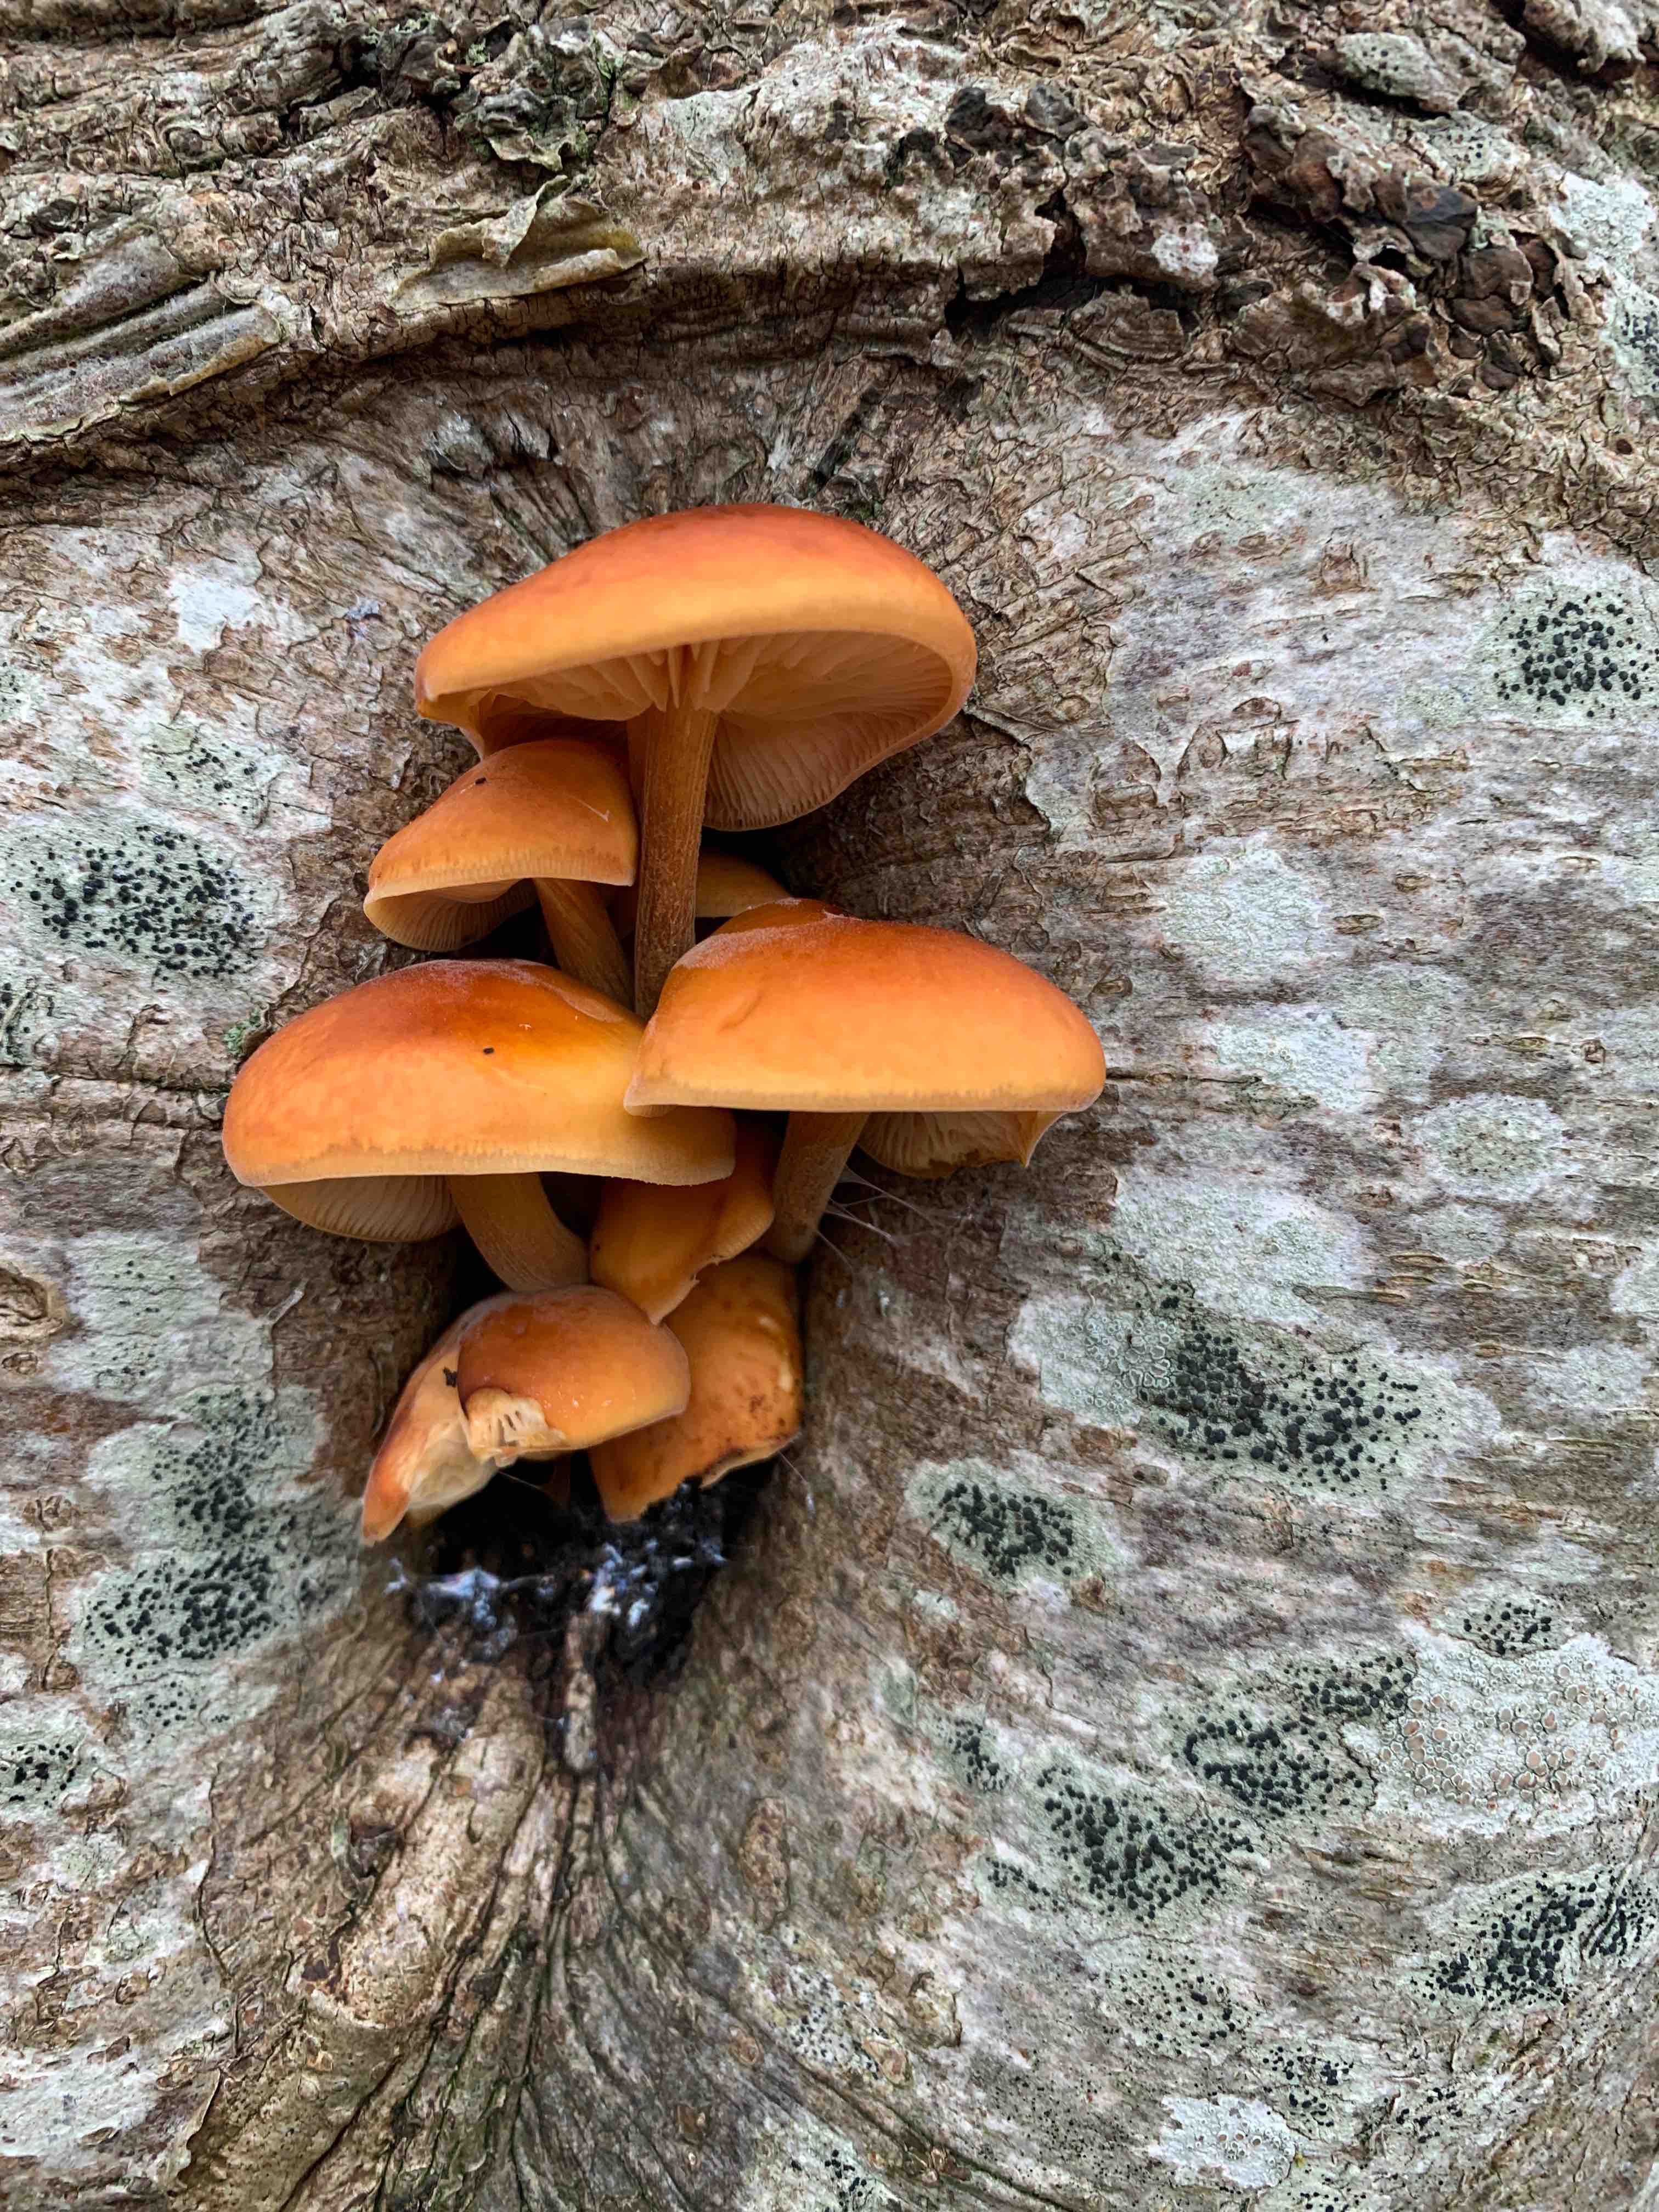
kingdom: Fungi
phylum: Basidiomycota
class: Agaricomycetes
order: Agaricales
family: Physalacriaceae
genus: Flammulina
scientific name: Flammulina velutipes
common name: gul fløjlsfod
